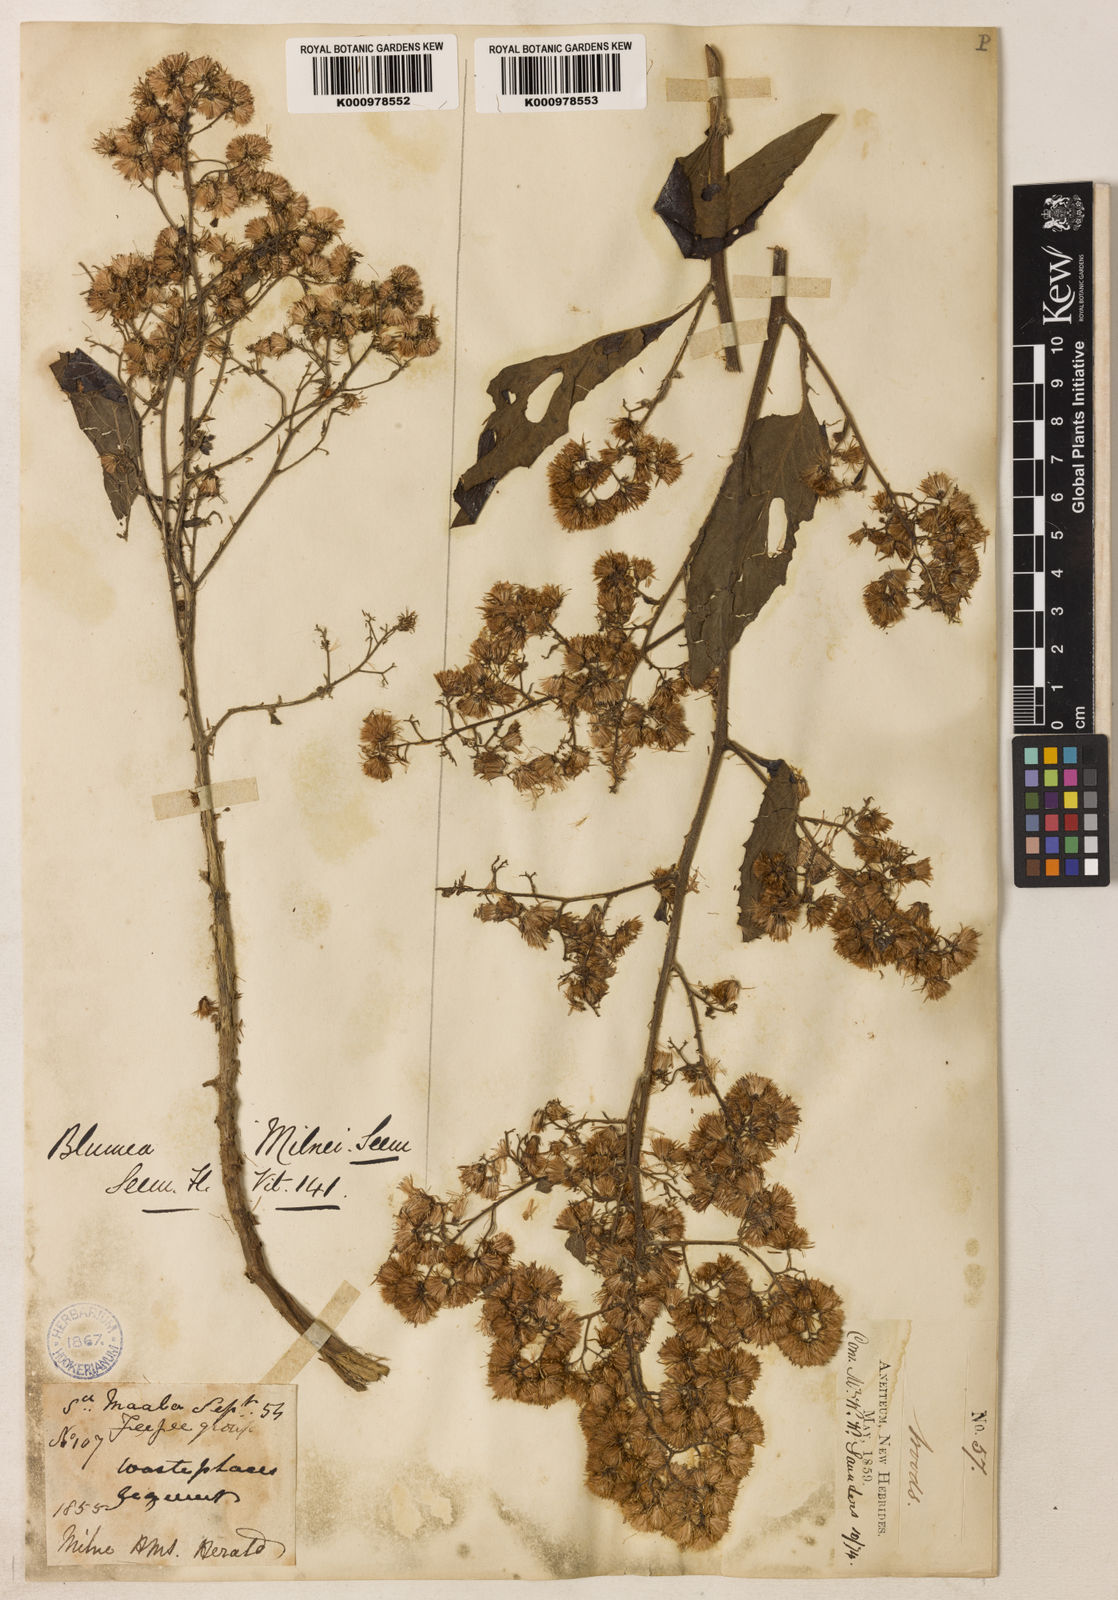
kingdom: Plantae
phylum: Tracheophyta
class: Magnoliopsida
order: Asterales
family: Asteraceae
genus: Blumea
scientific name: Blumea milnei
